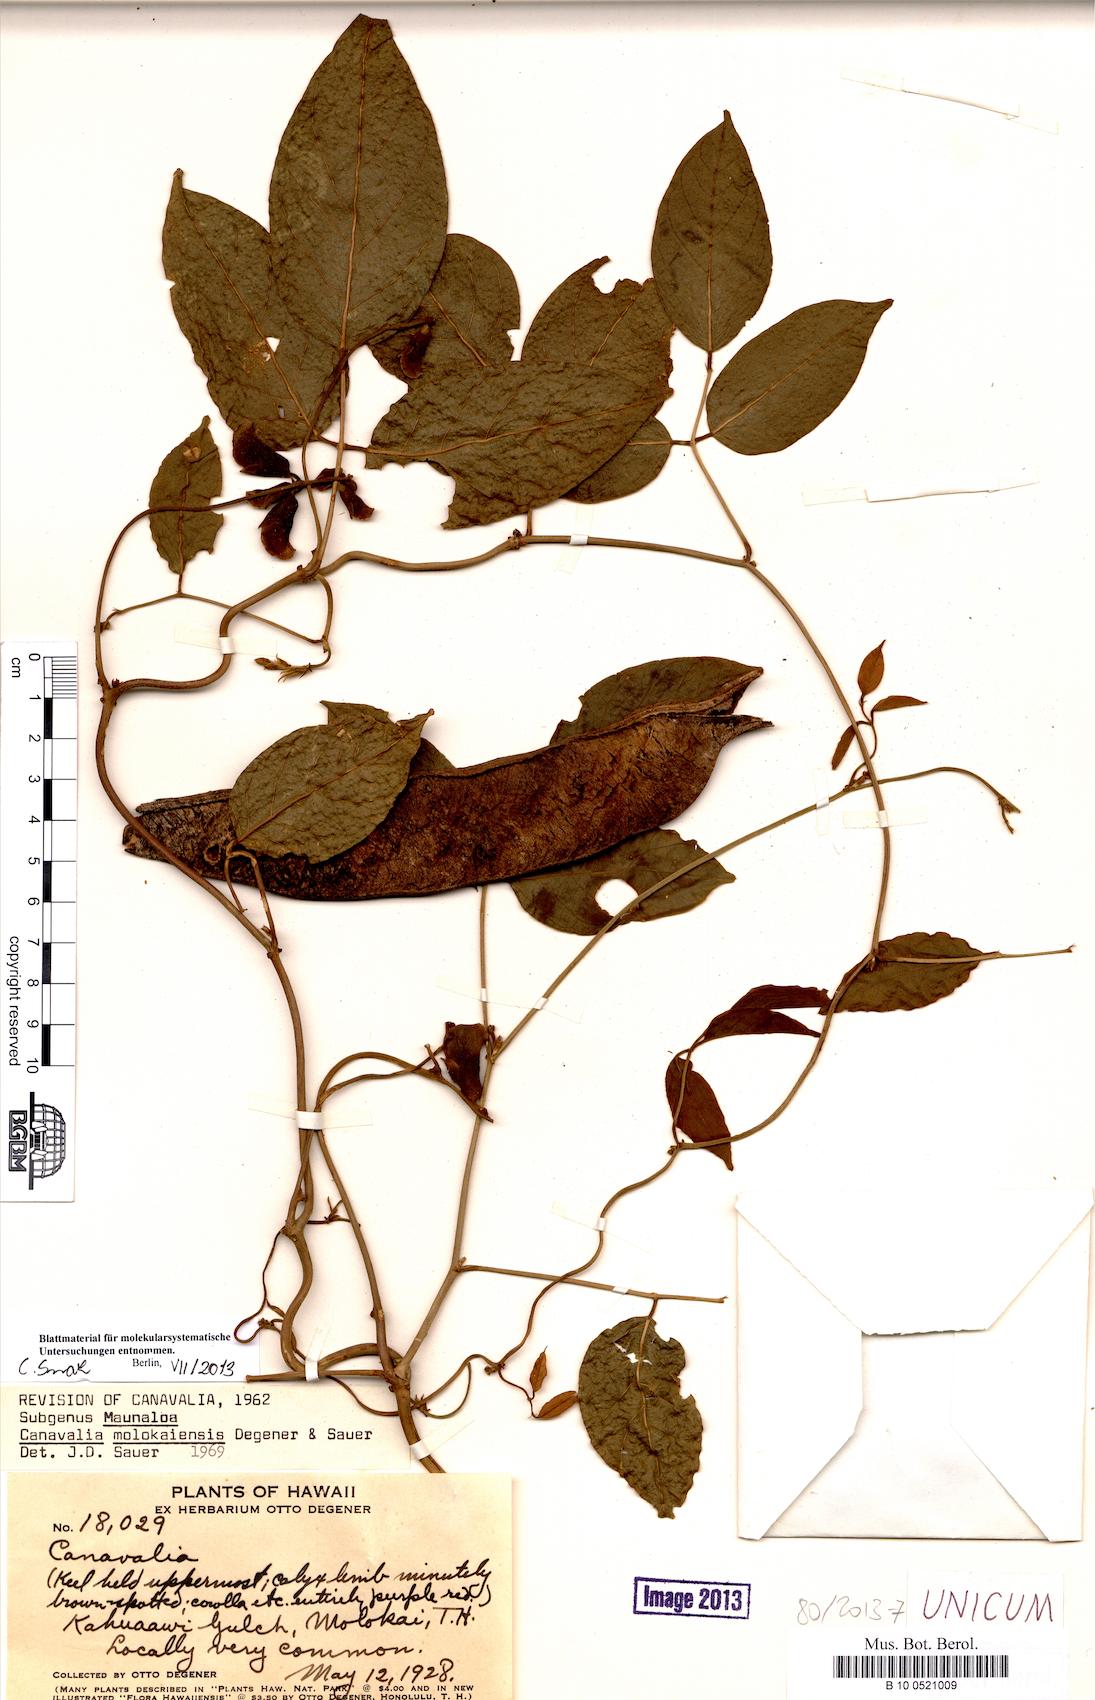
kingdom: Plantae
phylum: Tracheophyta
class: Magnoliopsida
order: Fabales
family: Fabaceae
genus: Canavalia
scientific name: Canavalia molokaiensis
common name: Molokai jack-bean
